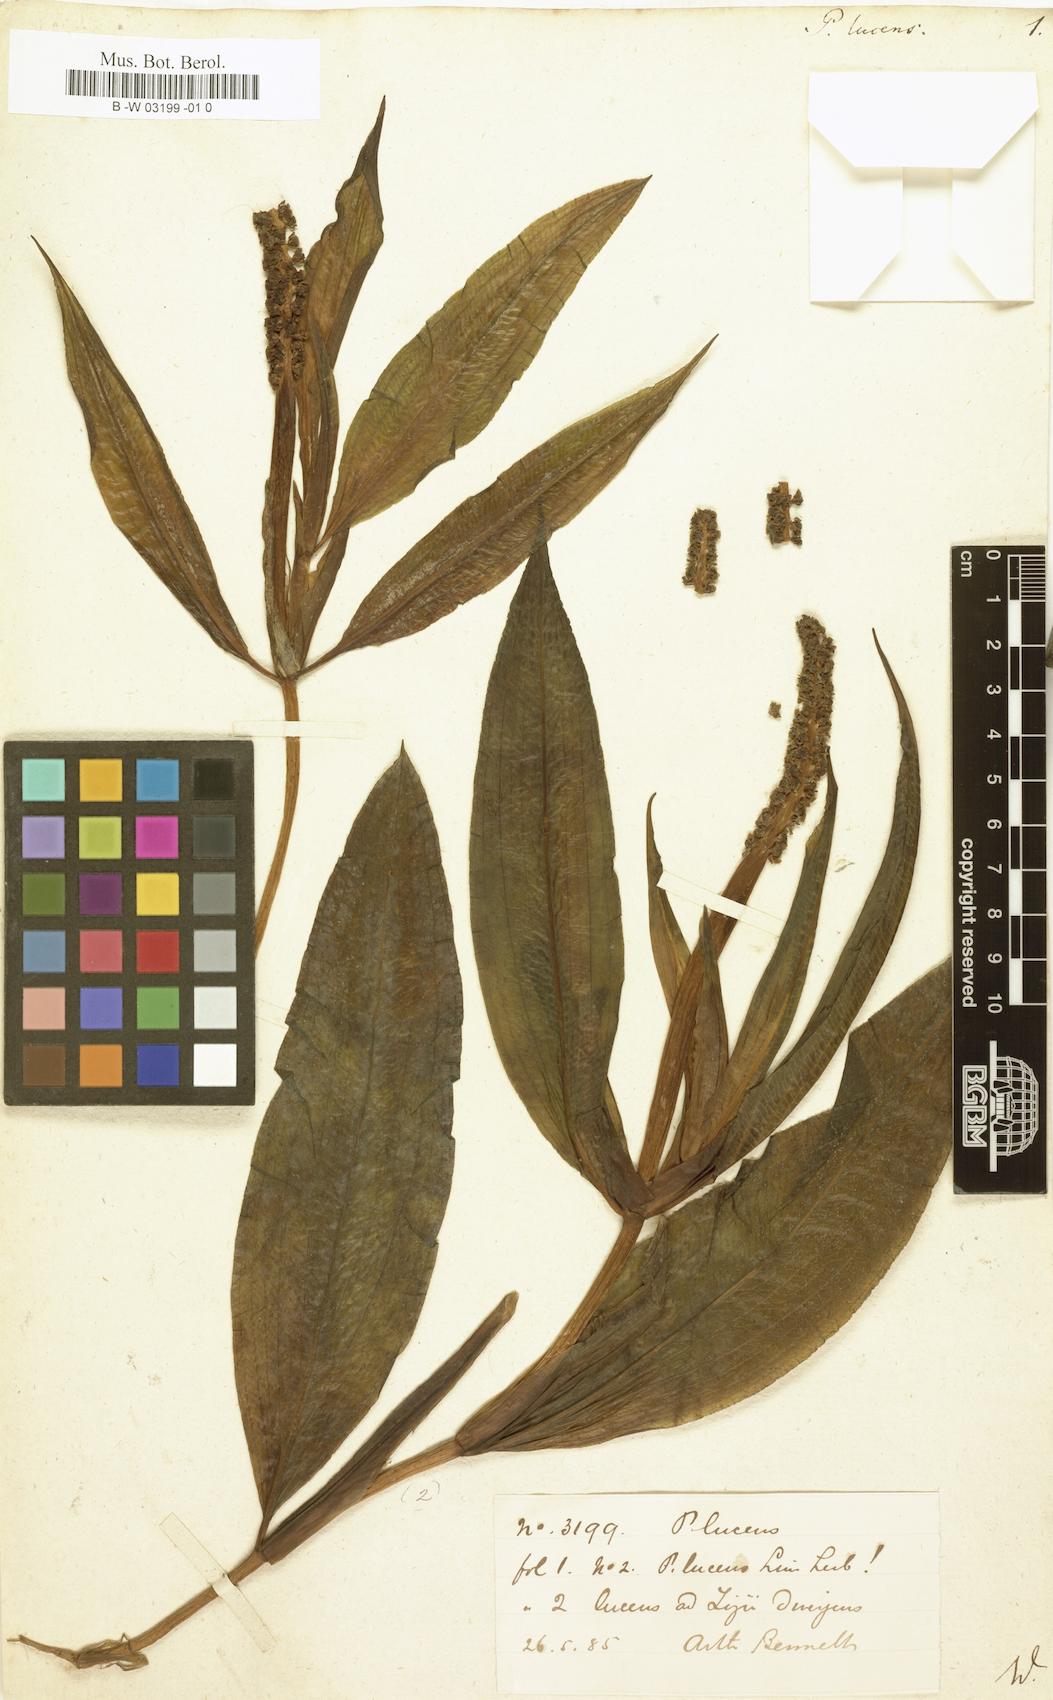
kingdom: Plantae
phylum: Tracheophyta
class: Liliopsida
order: Alismatales
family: Potamogetonaceae
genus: Potamogeton
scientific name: Potamogeton lucens
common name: Shining pondweed
